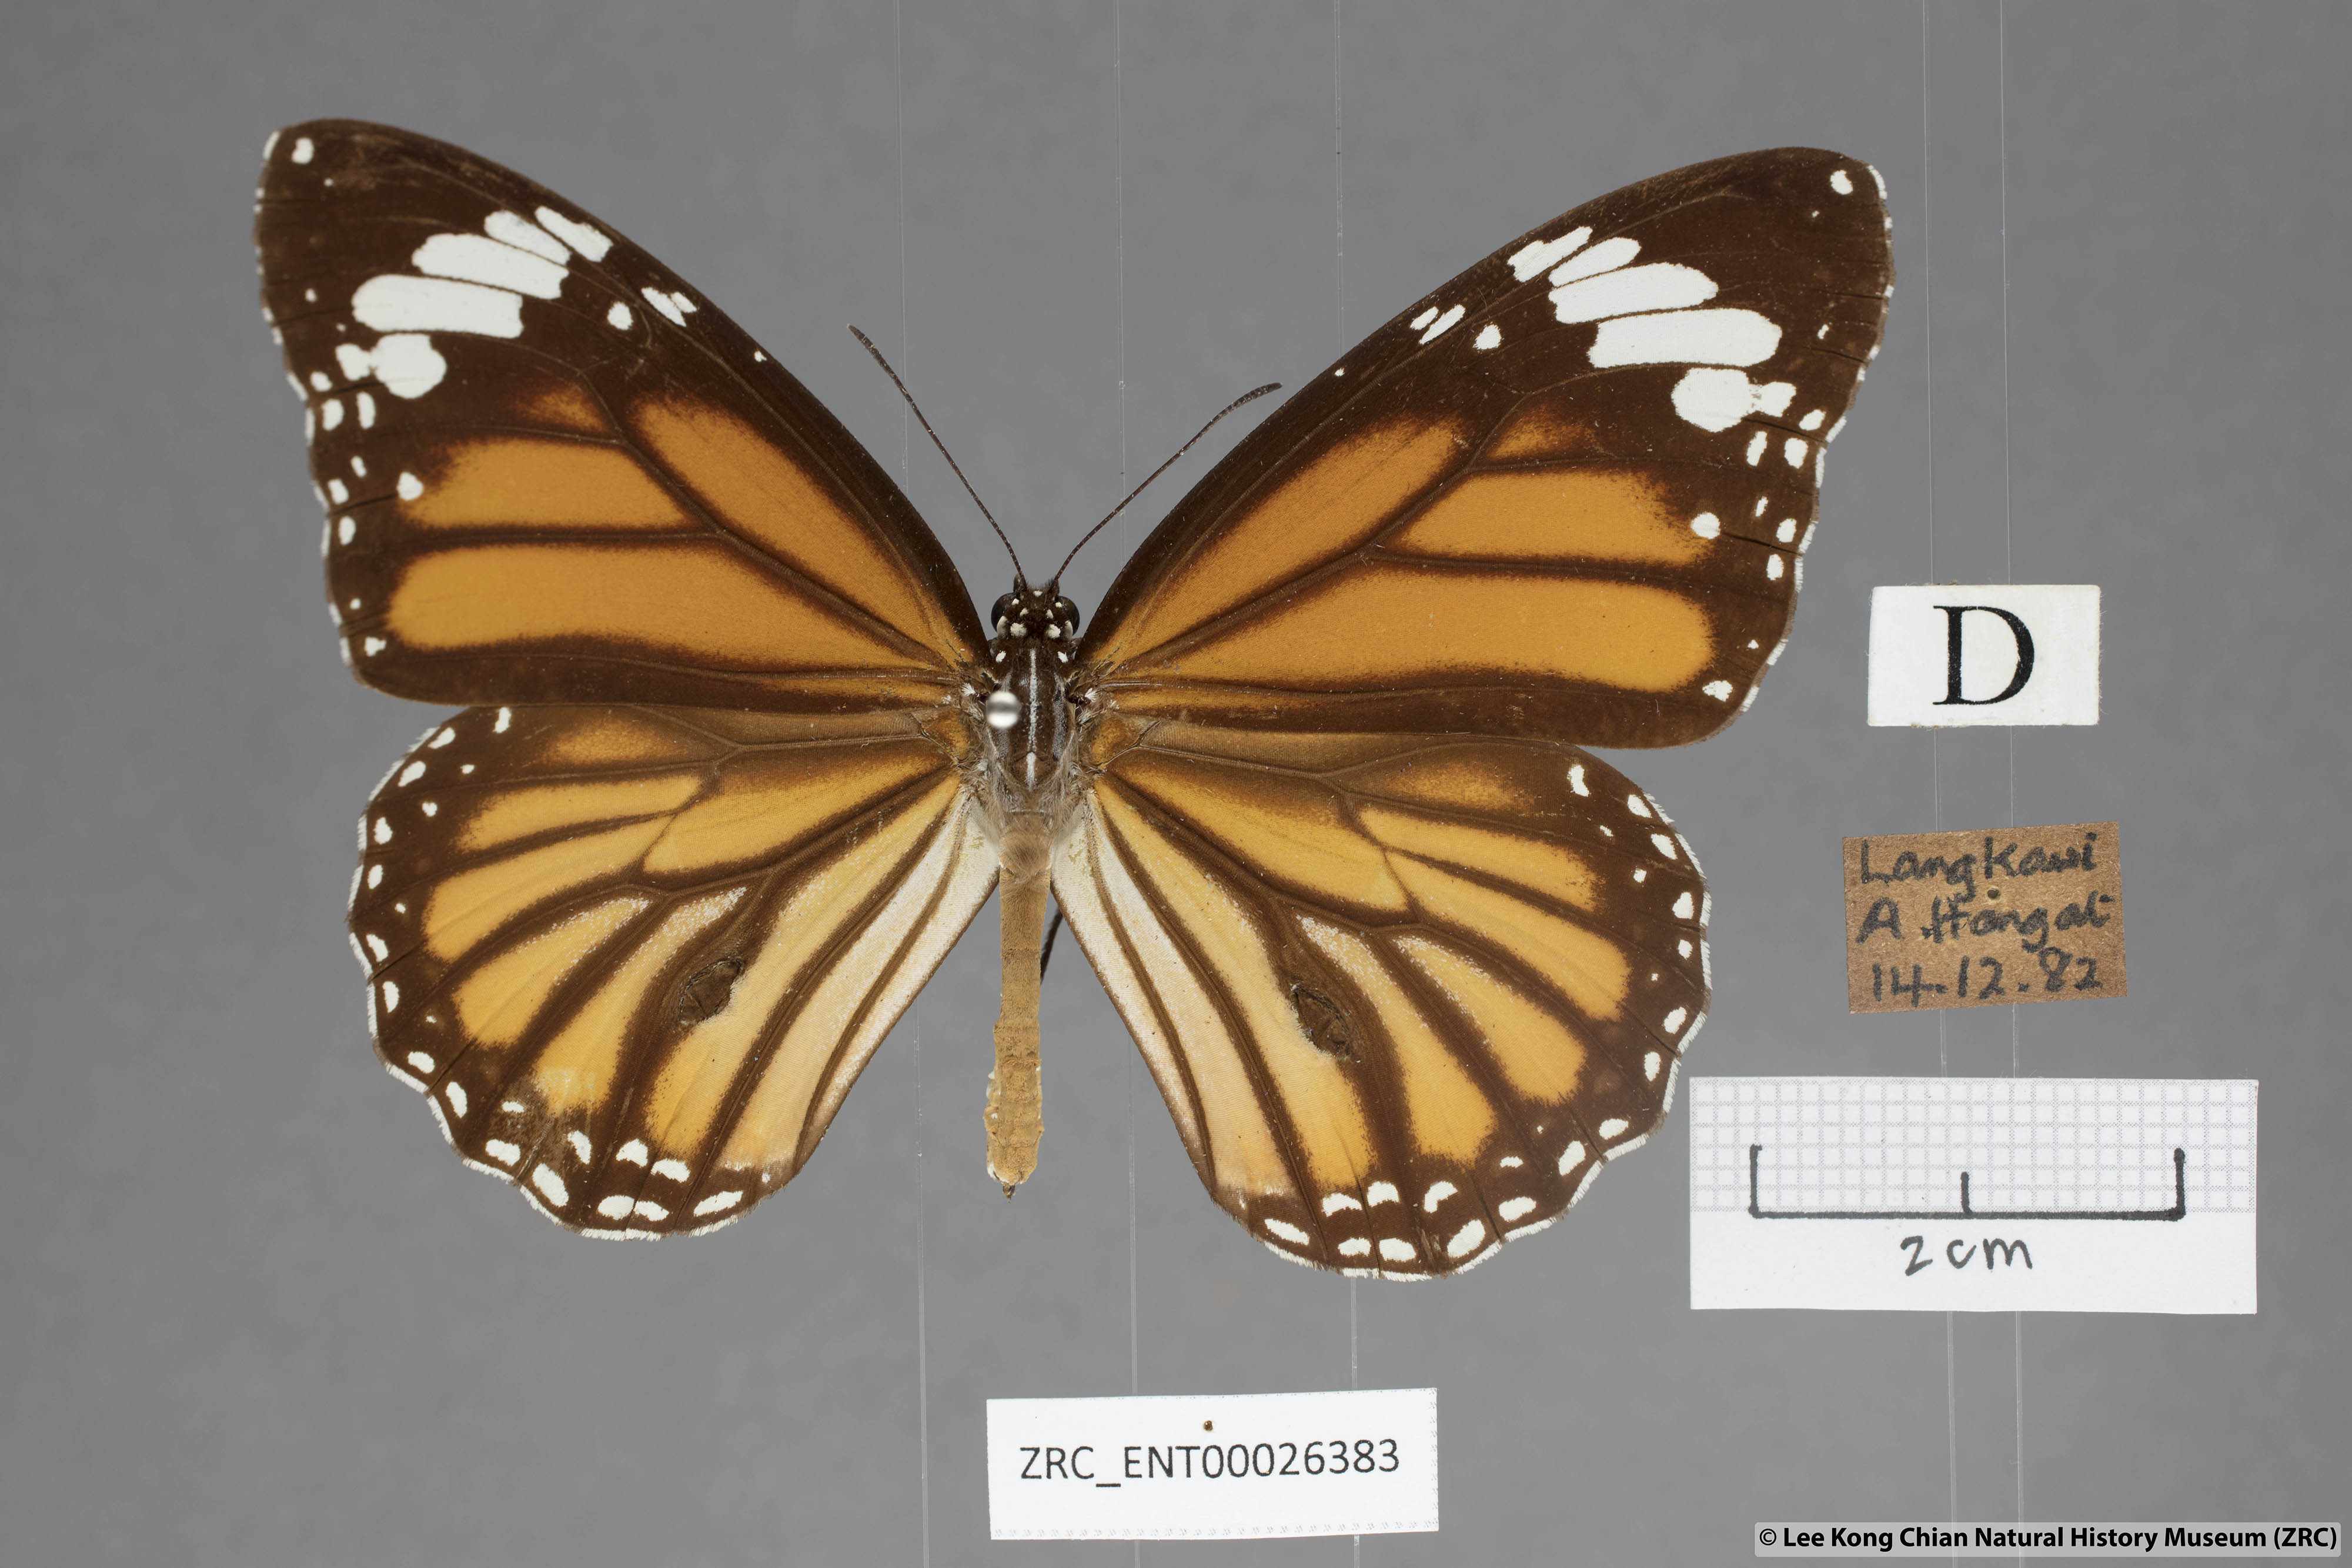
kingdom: Animalia
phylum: Arthropoda
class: Insecta
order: Lepidoptera
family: Nymphalidae
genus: Danaus
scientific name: Danaus genutia
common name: Common tiger butterfly
